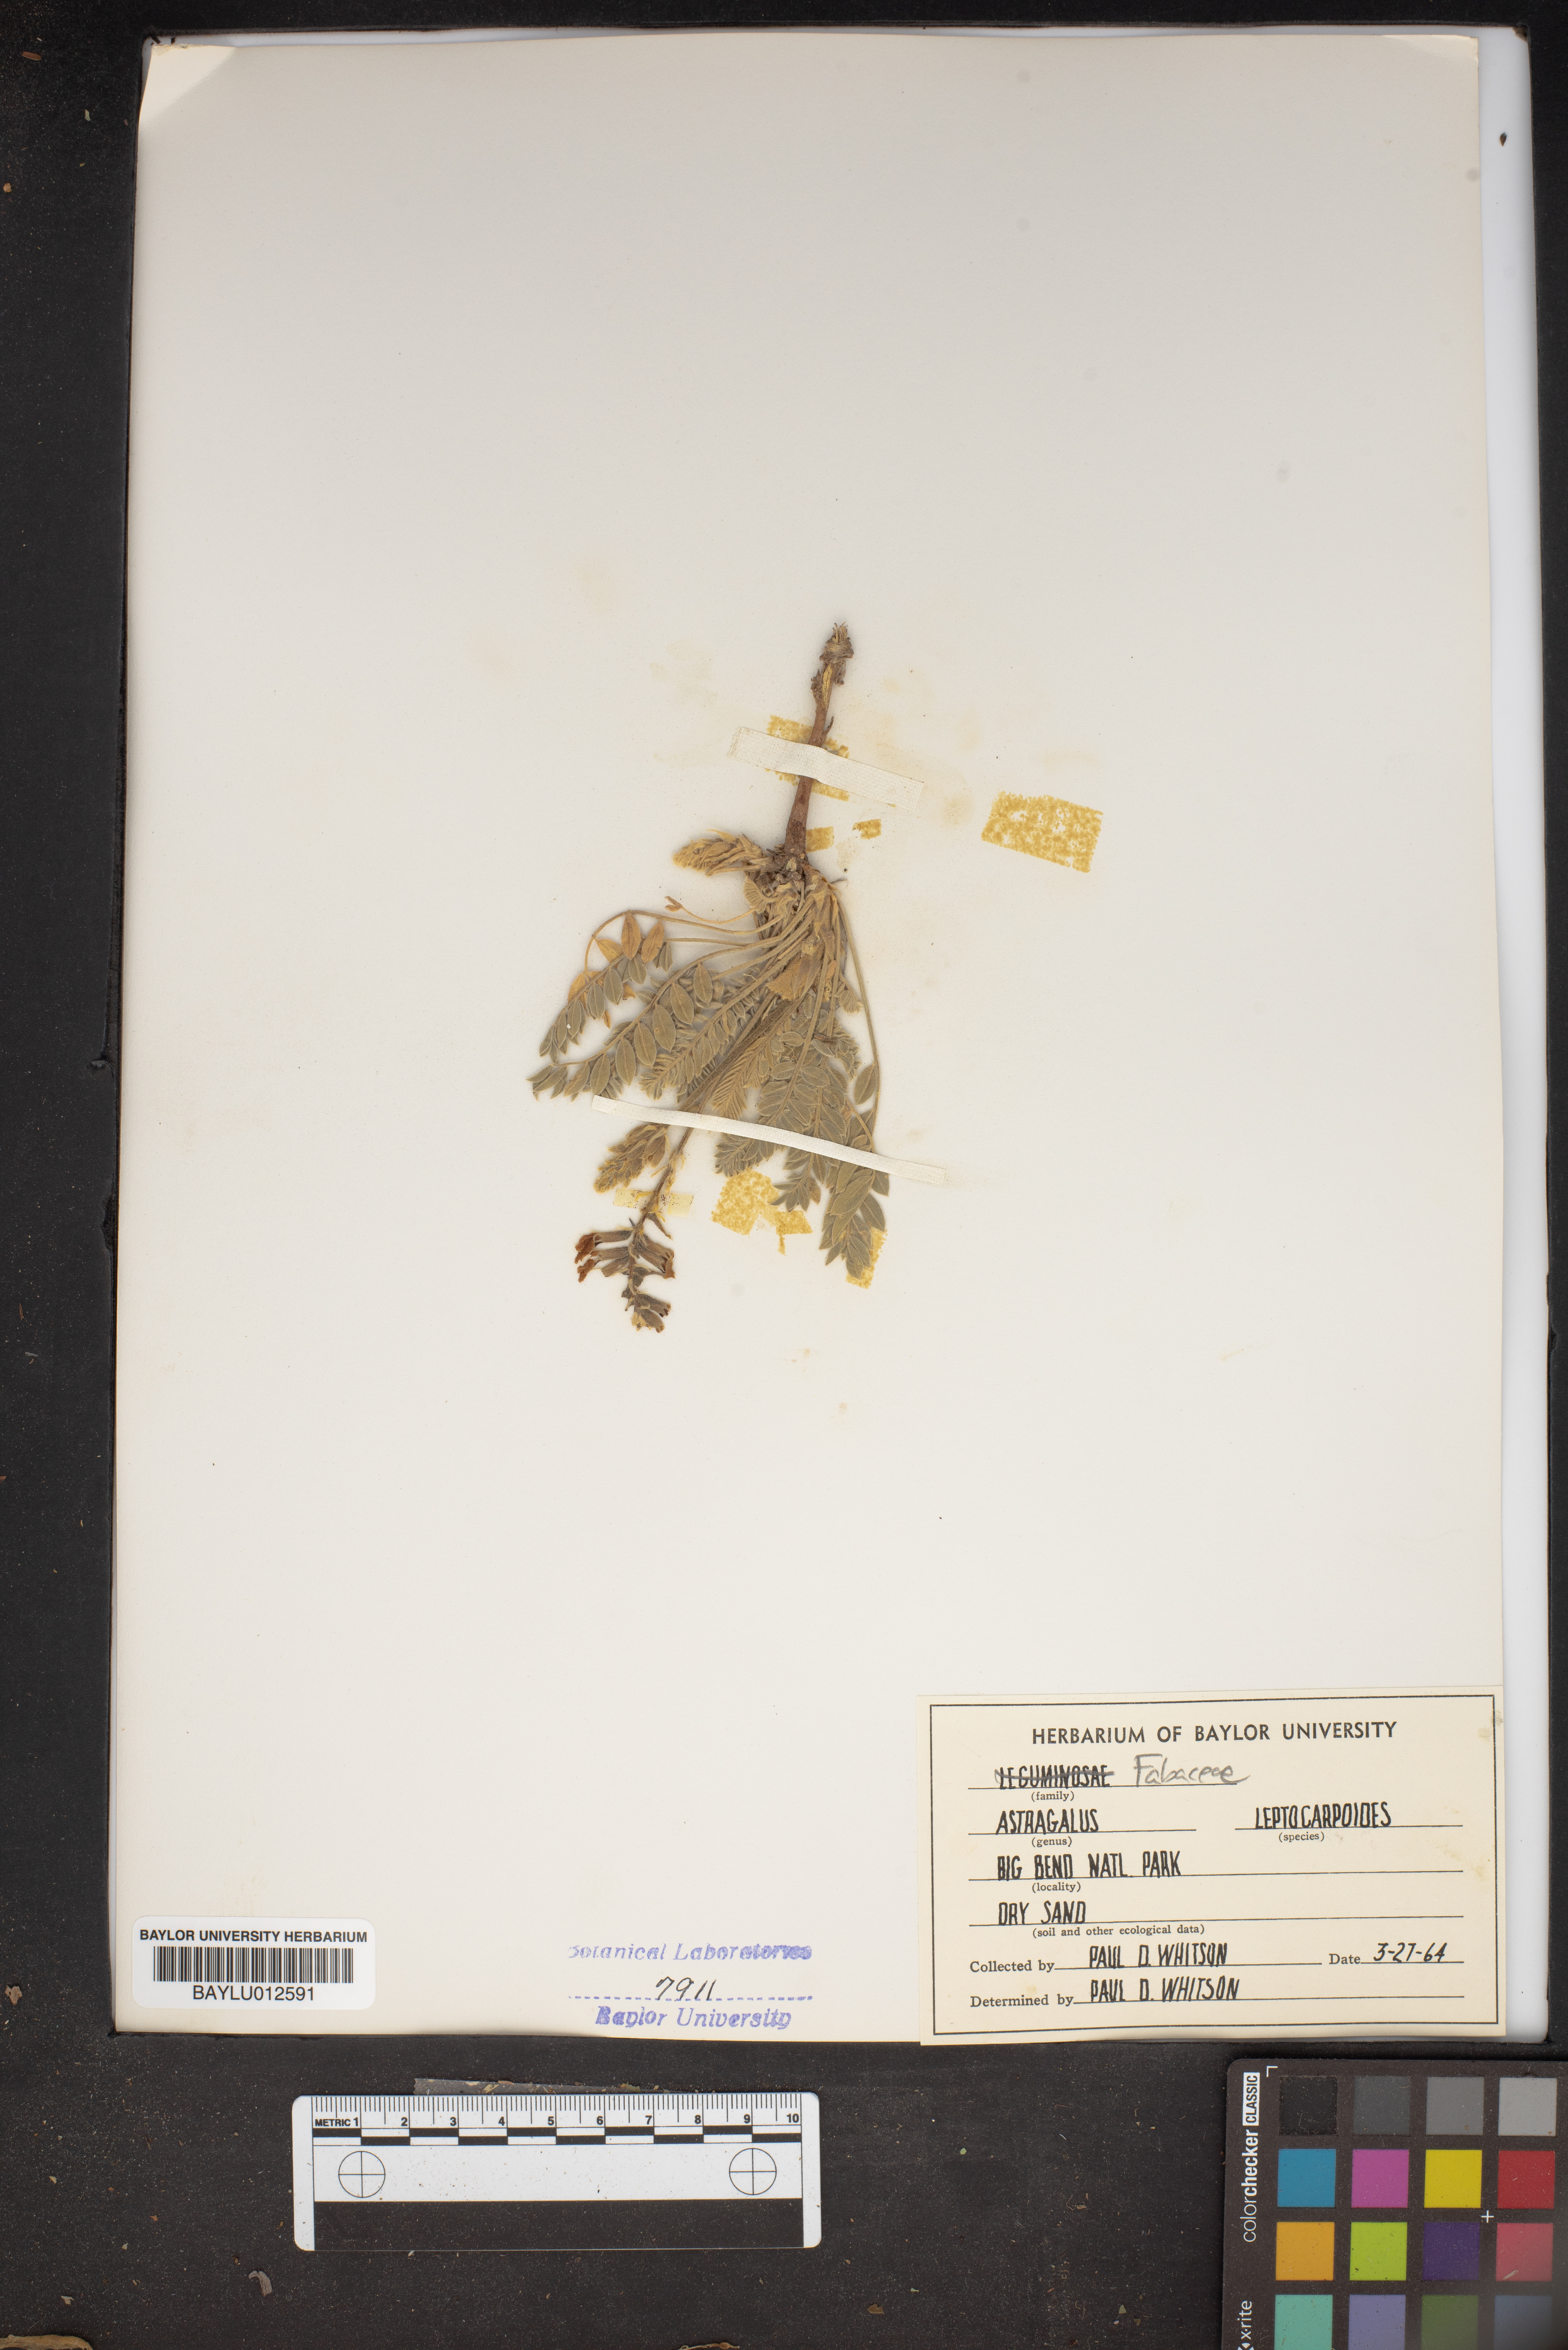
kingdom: Plantae
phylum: Tracheophyta
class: Magnoliopsida
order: Fabales
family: Fabaceae
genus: Astragalus
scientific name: Astragalus leptocarpus
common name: Bodkin milk-vetch
